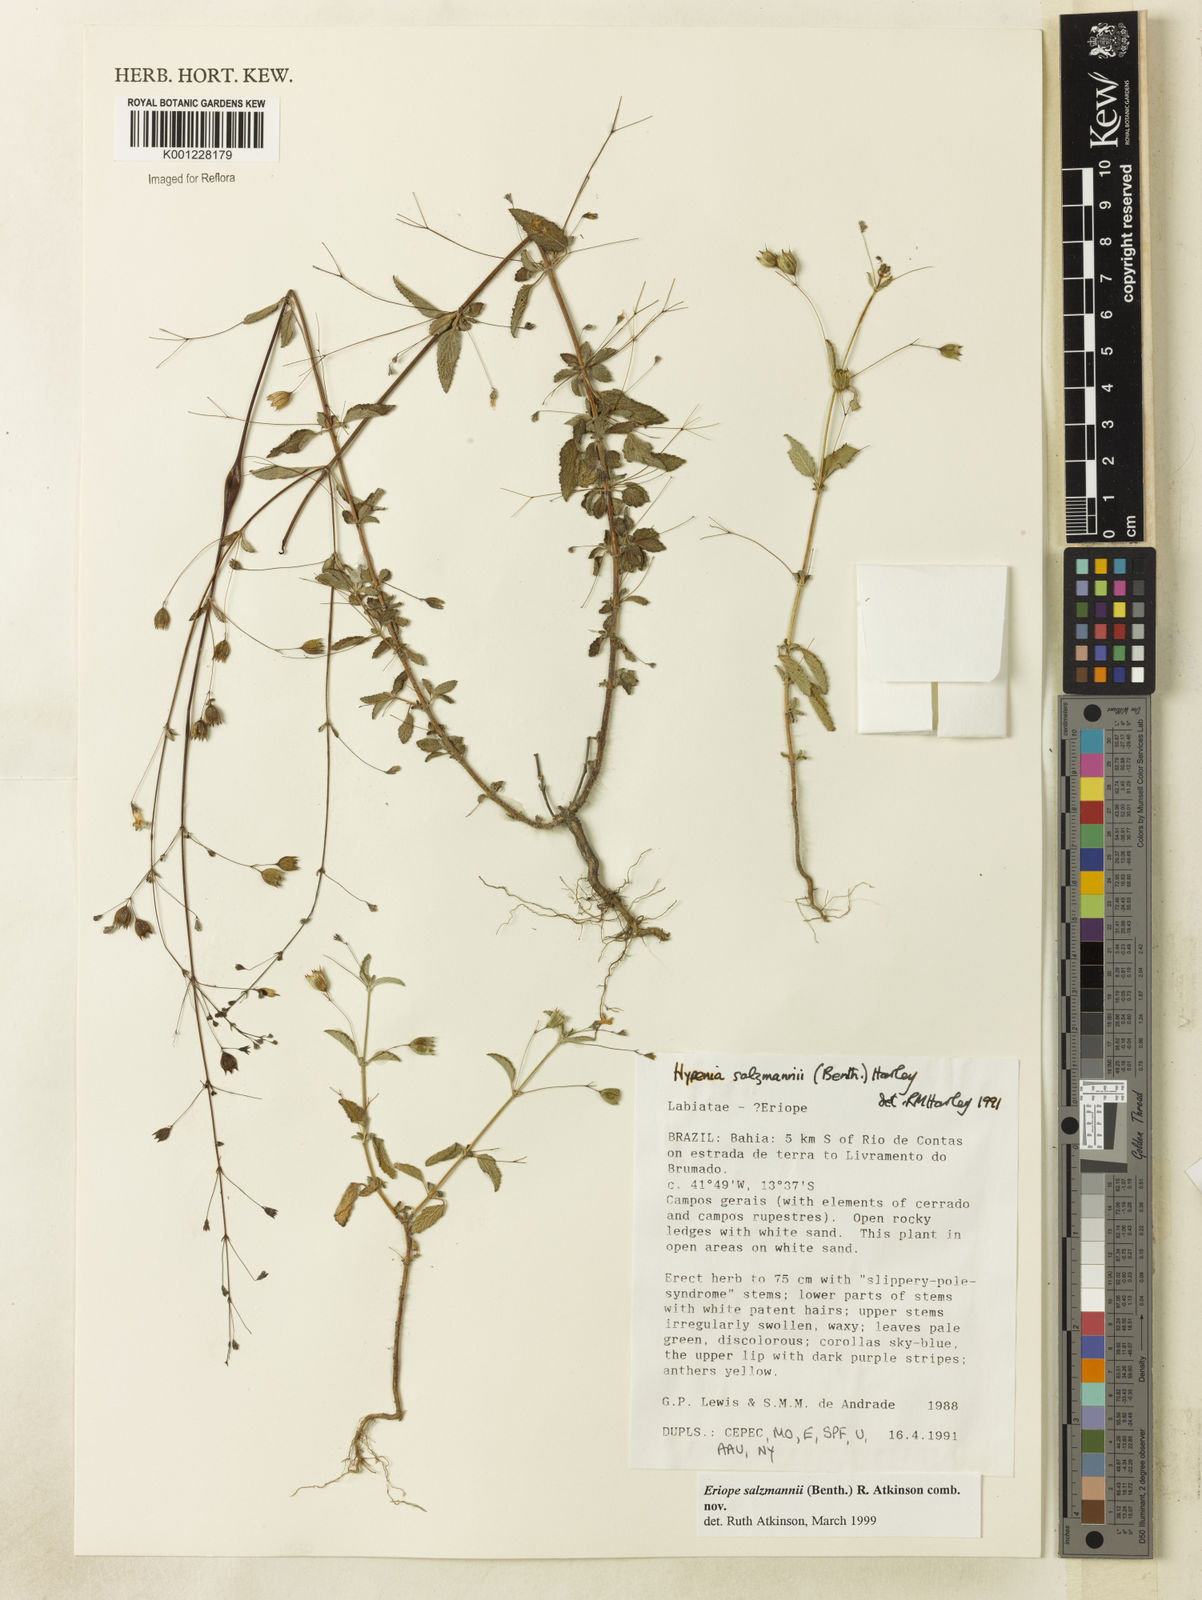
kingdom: Plantae
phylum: Tracheophyta
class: Magnoliopsida
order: Lamiales
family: Lamiaceae
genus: Hypenia
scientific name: Hypenia salzmannii
